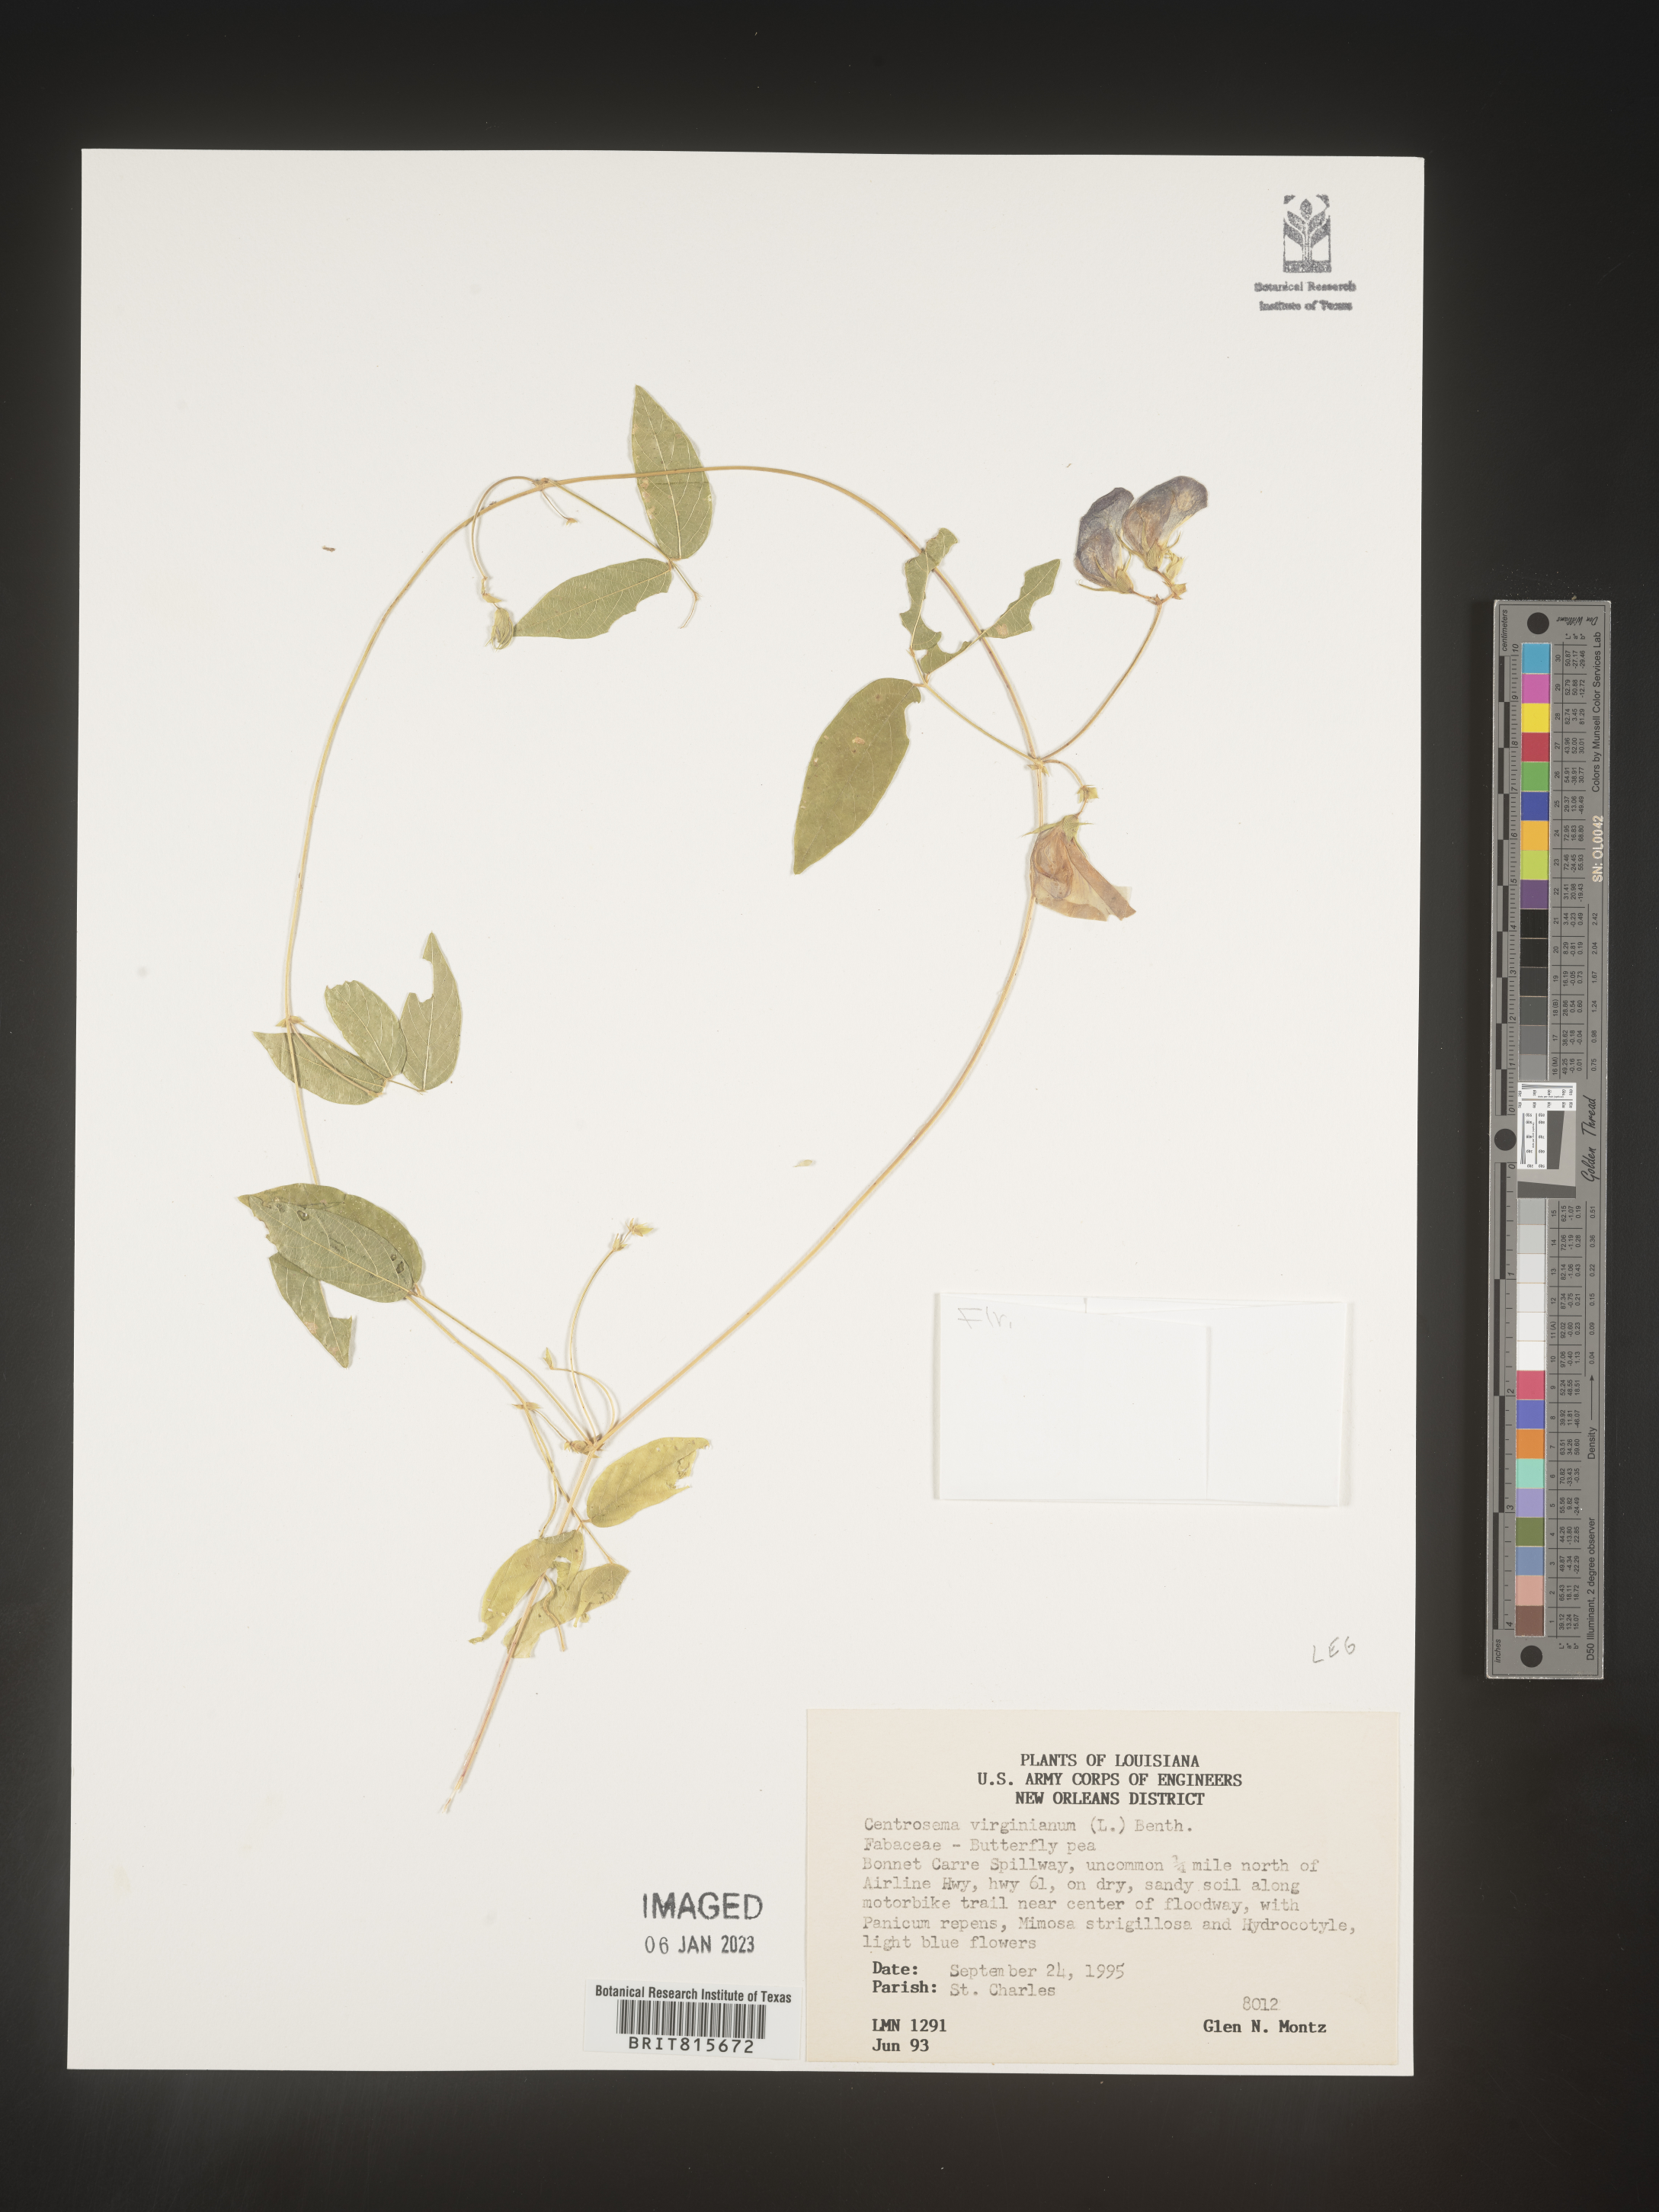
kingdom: Plantae
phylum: Tracheophyta
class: Magnoliopsida
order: Fabales
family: Fabaceae
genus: Centrosema
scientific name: Centrosema virginianum
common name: Butterfly-pea
